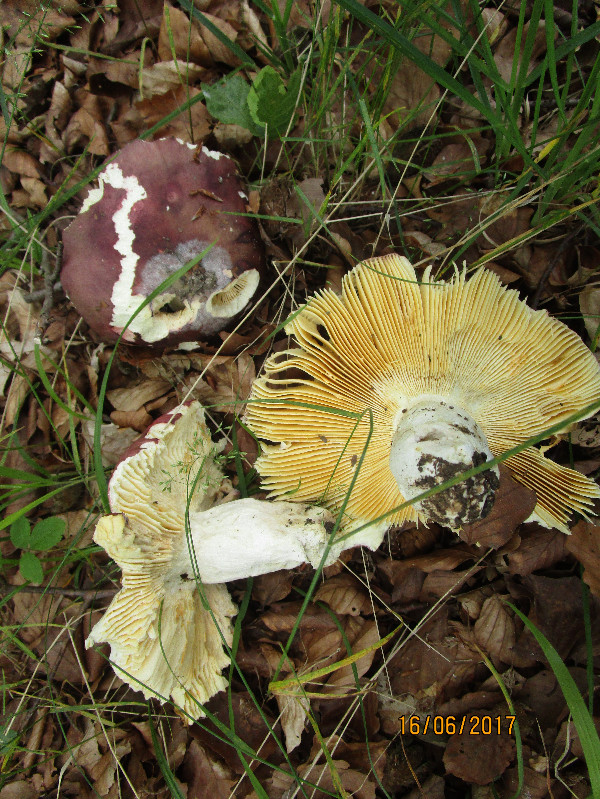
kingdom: Fungi
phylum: Basidiomycota
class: Agaricomycetes
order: Russulales
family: Russulaceae
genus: Russula
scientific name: Russula romellii
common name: romells skørhat
